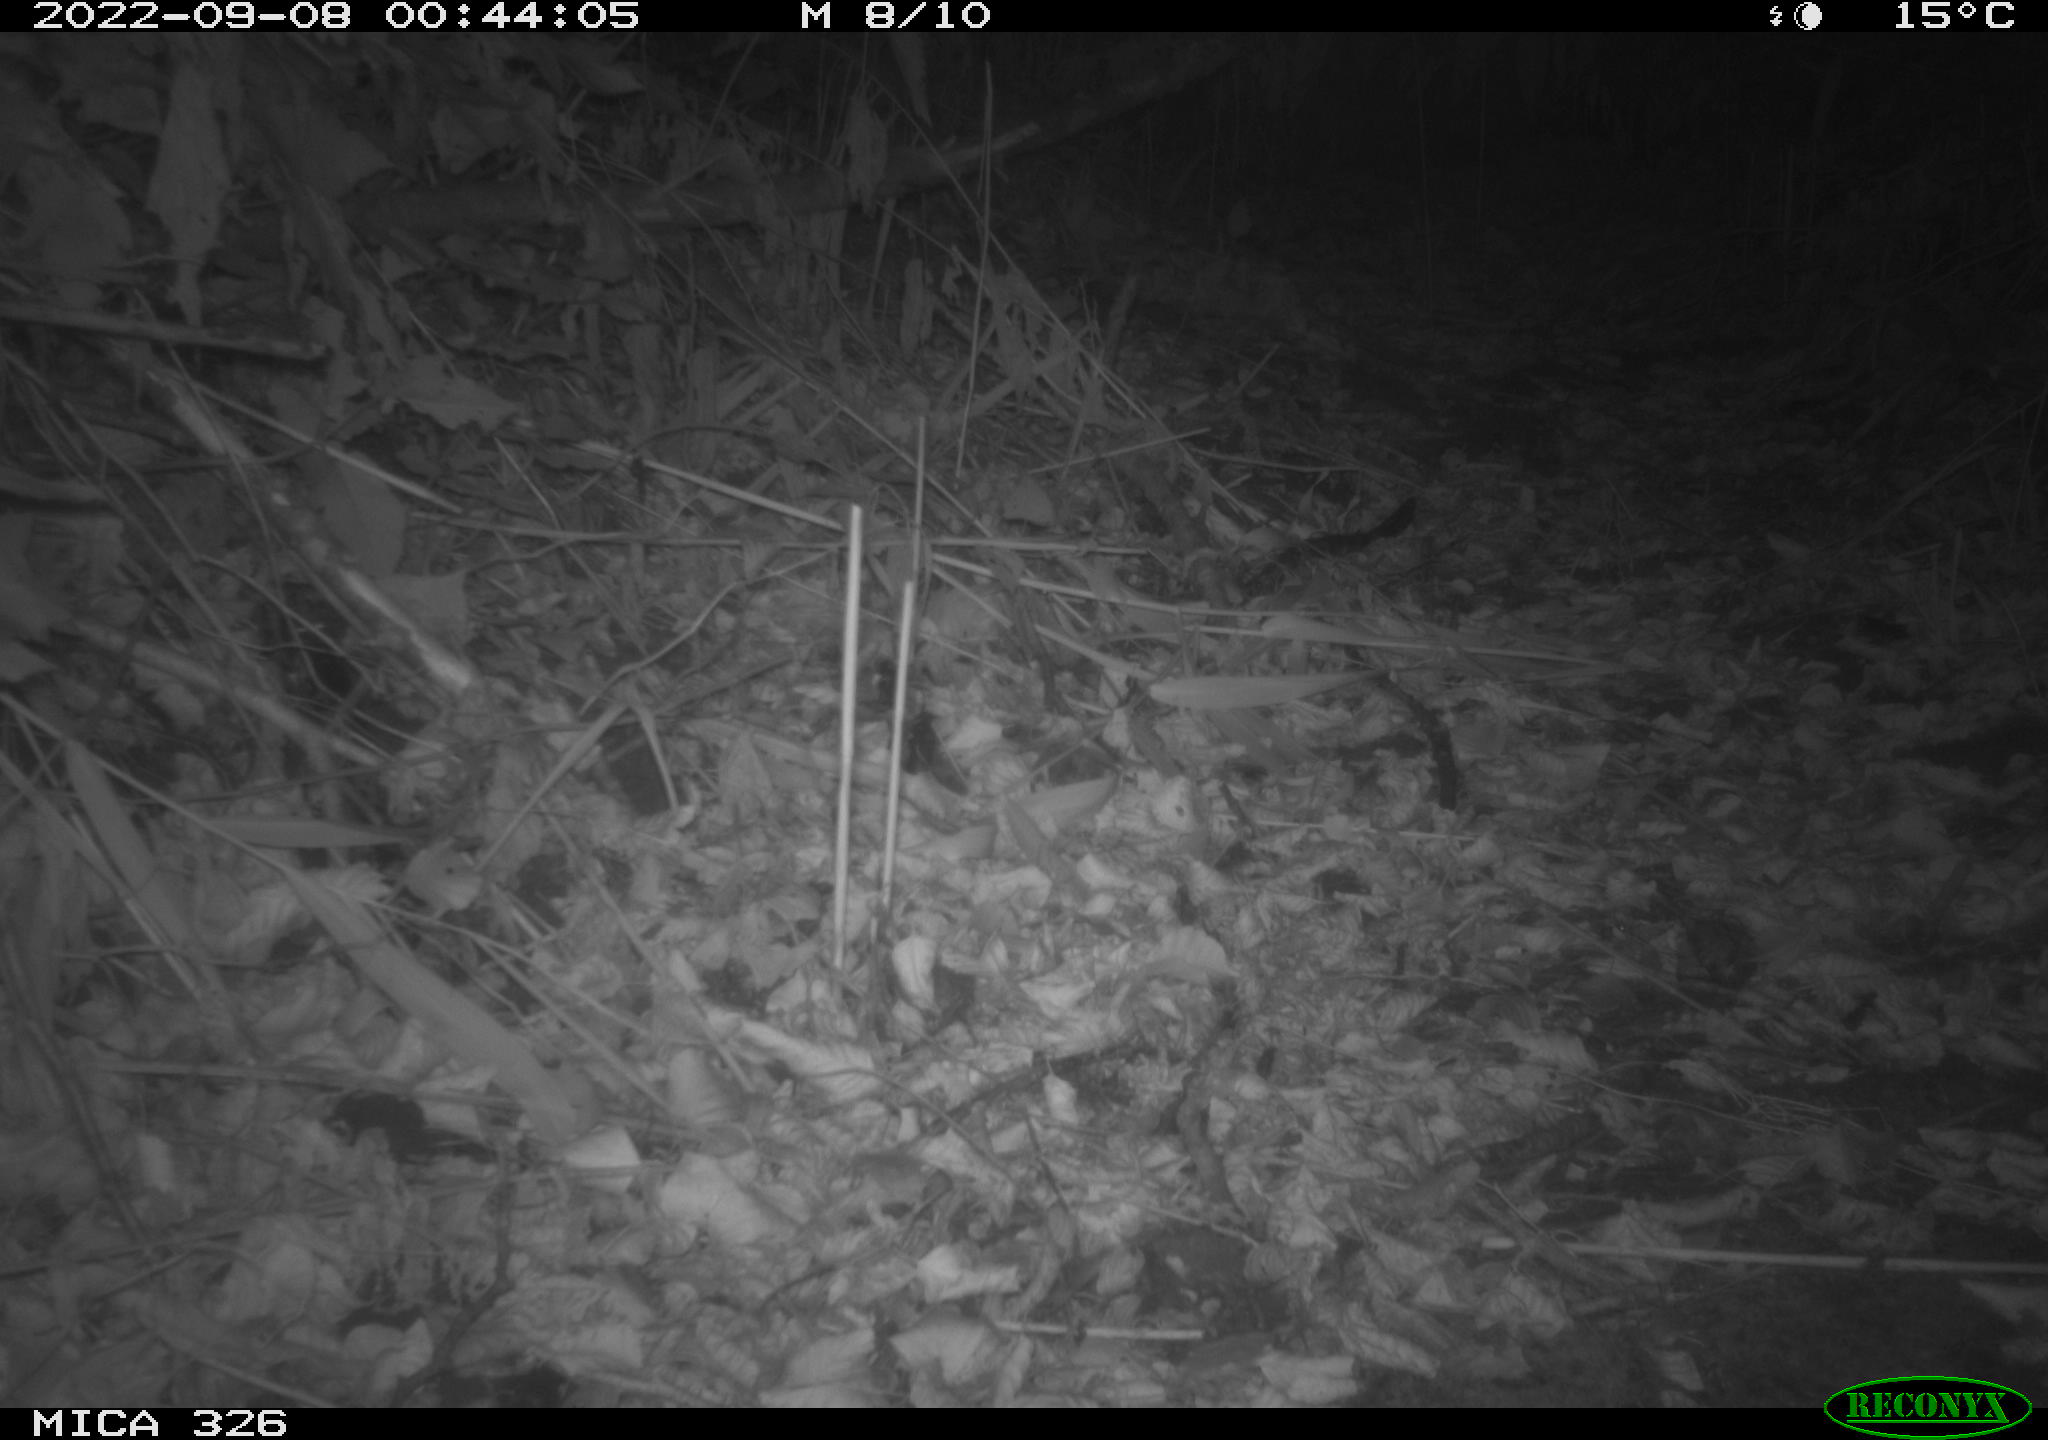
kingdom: Animalia
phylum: Chordata
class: Mammalia
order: Carnivora
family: Mustelidae
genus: Martes
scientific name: Martes martes
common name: European pine marten
